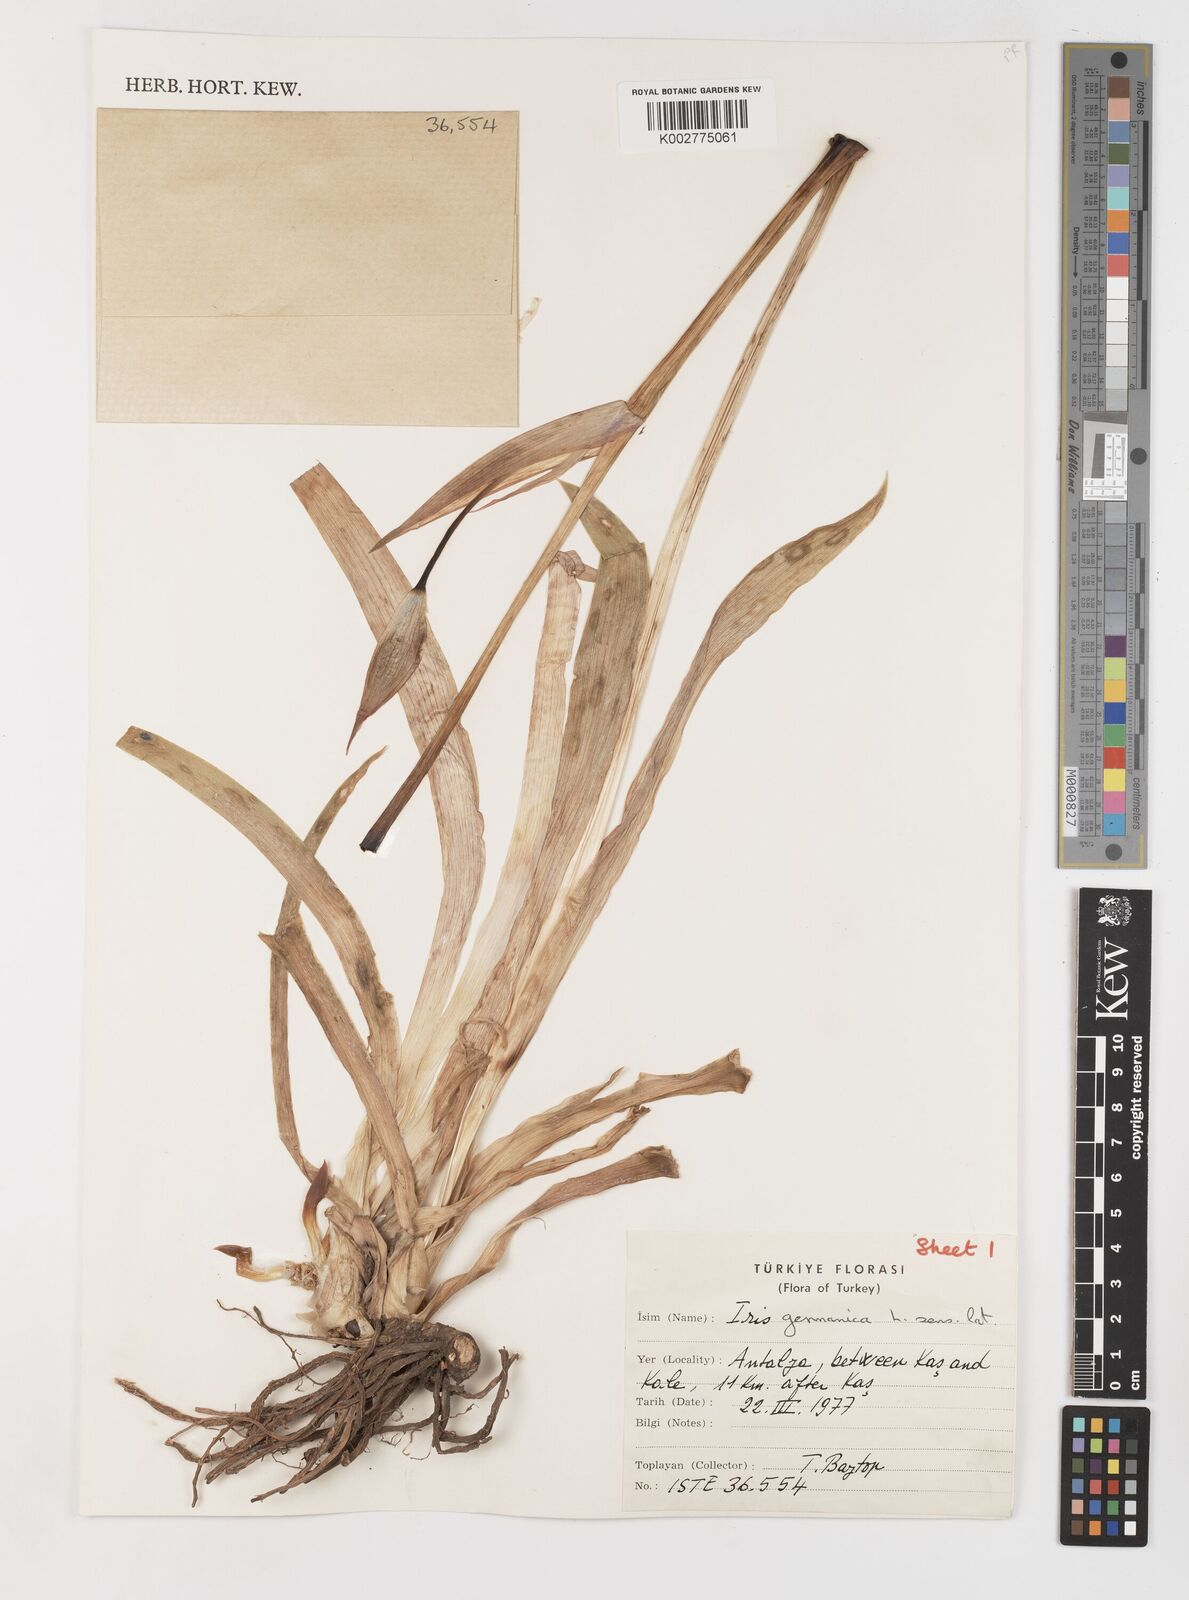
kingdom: Plantae
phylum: Tracheophyta
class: Liliopsida
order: Asparagales
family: Iridaceae
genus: Iris
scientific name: Iris germanica
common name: German iris
